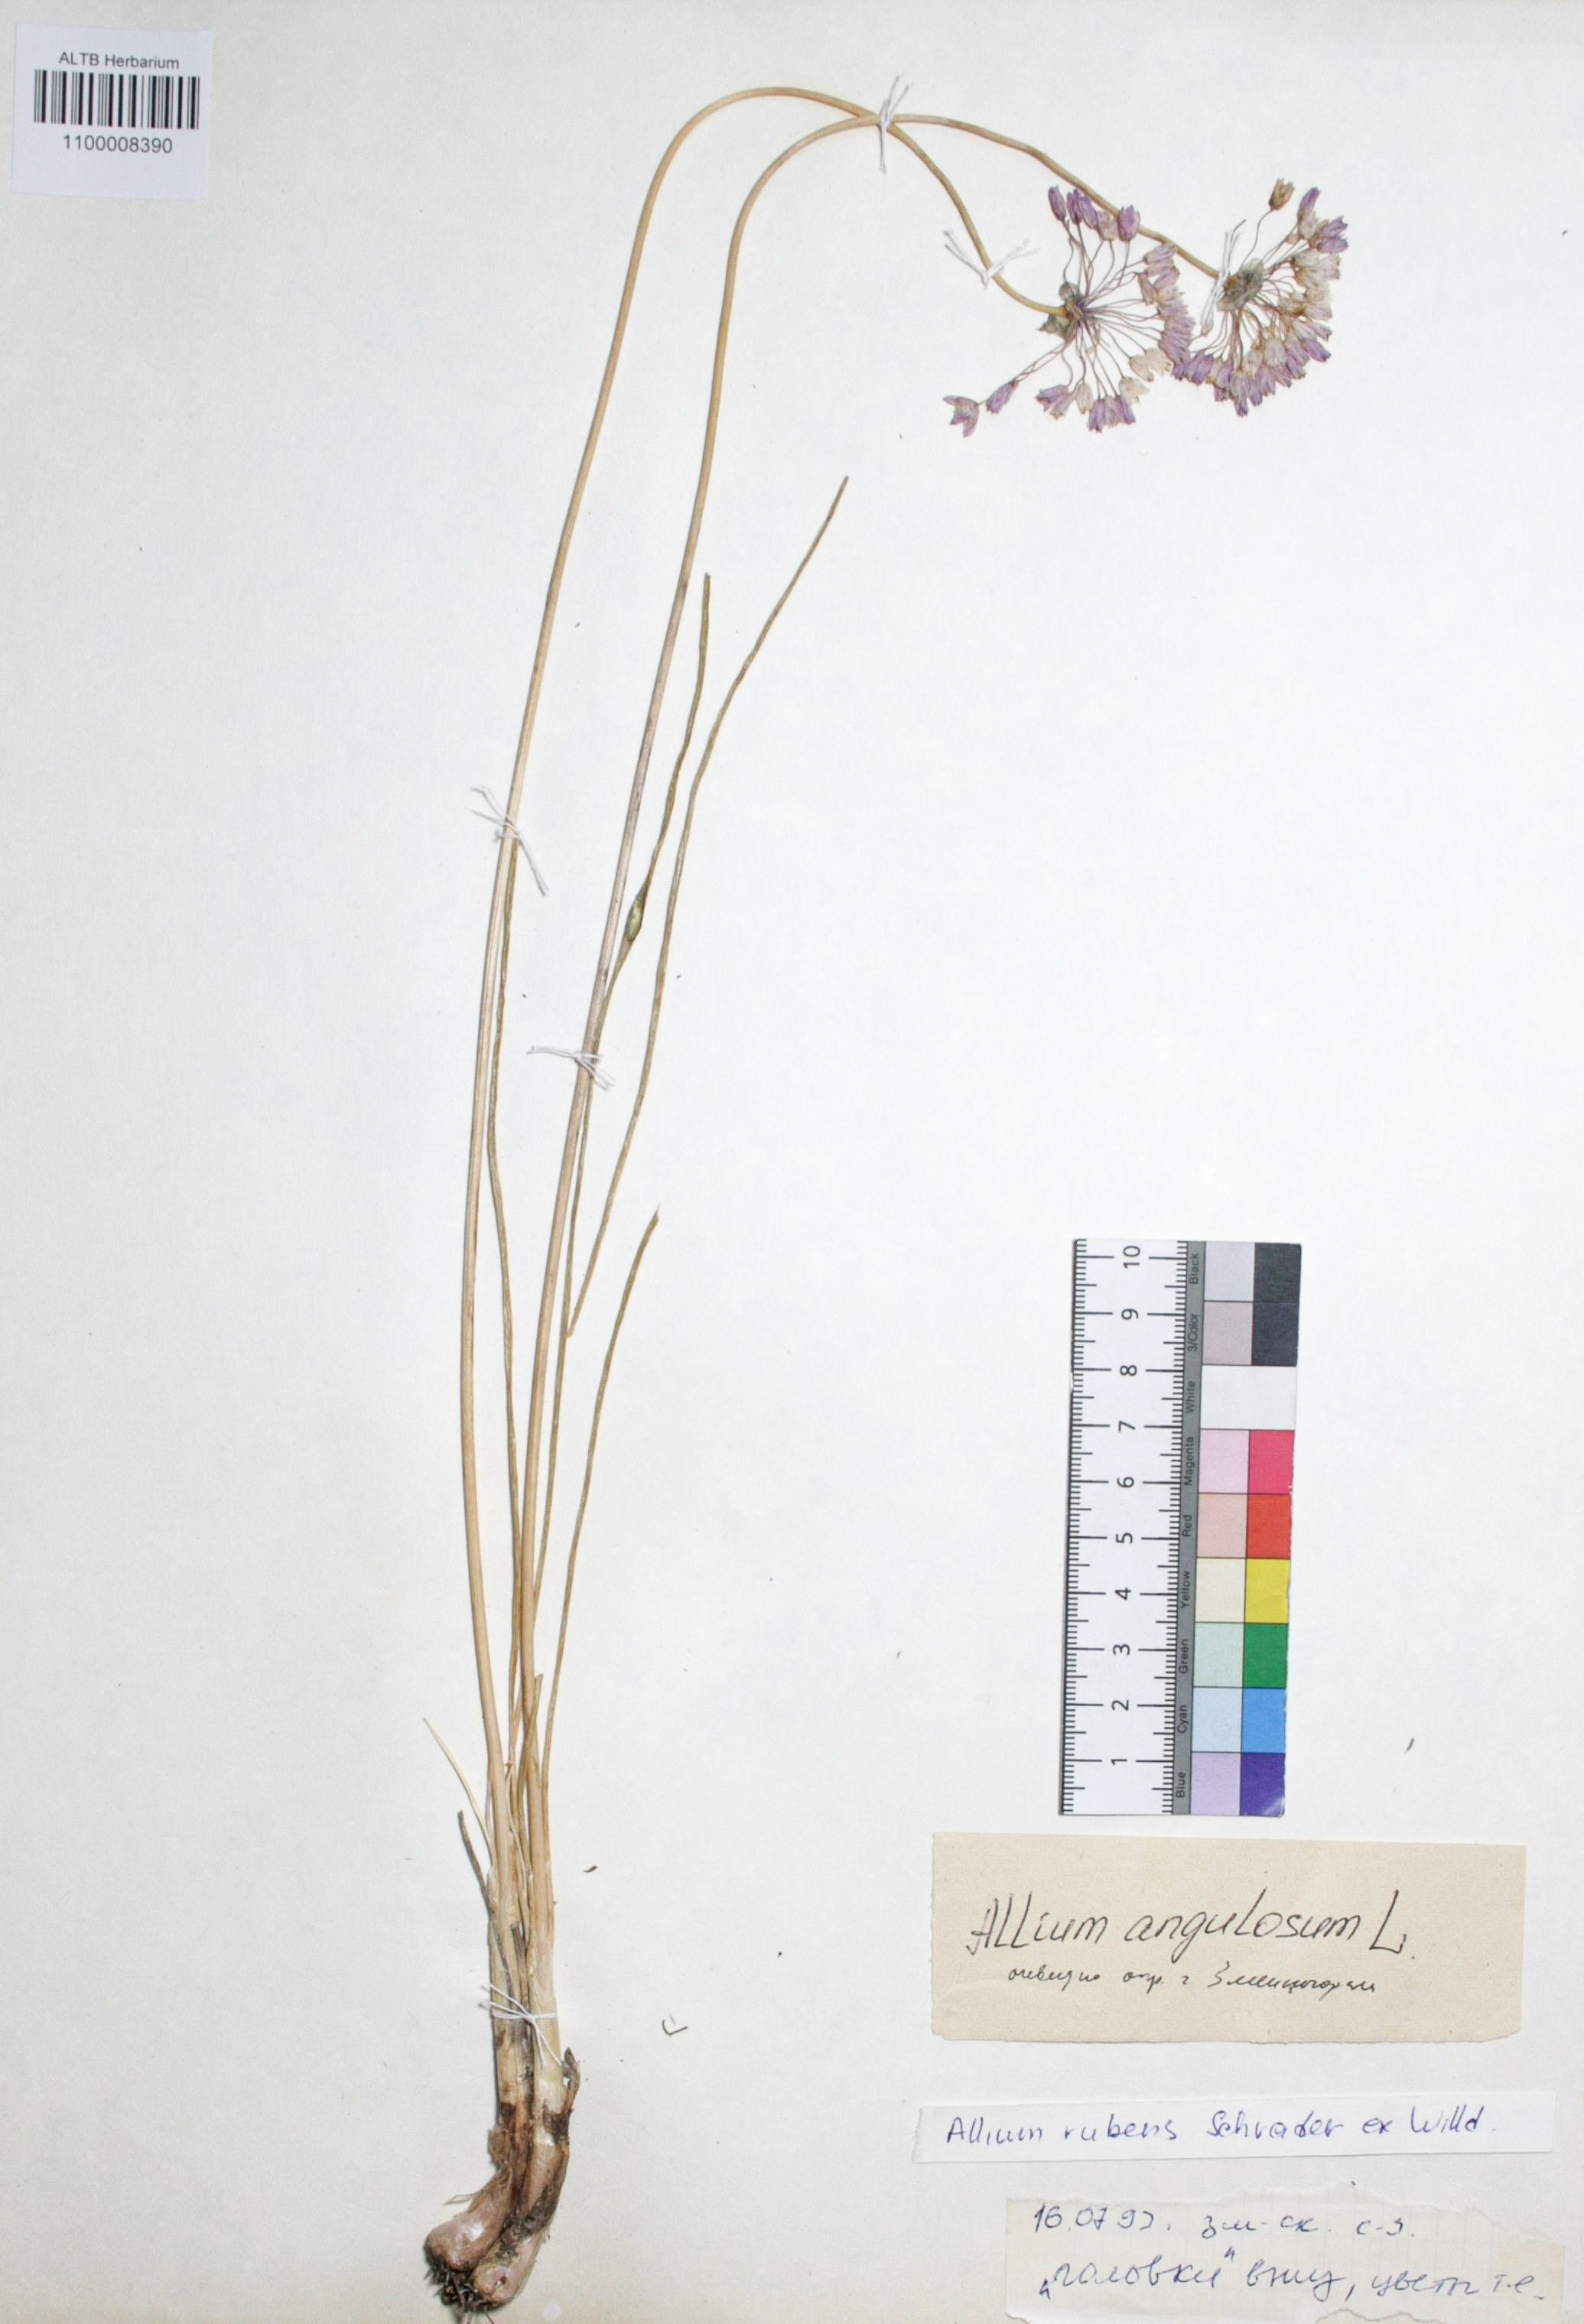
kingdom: Plantae
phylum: Tracheophyta
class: Liliopsida
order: Asparagales
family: Amaryllidaceae
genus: Allium
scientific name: Allium angulosum
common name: Mouse garlic
